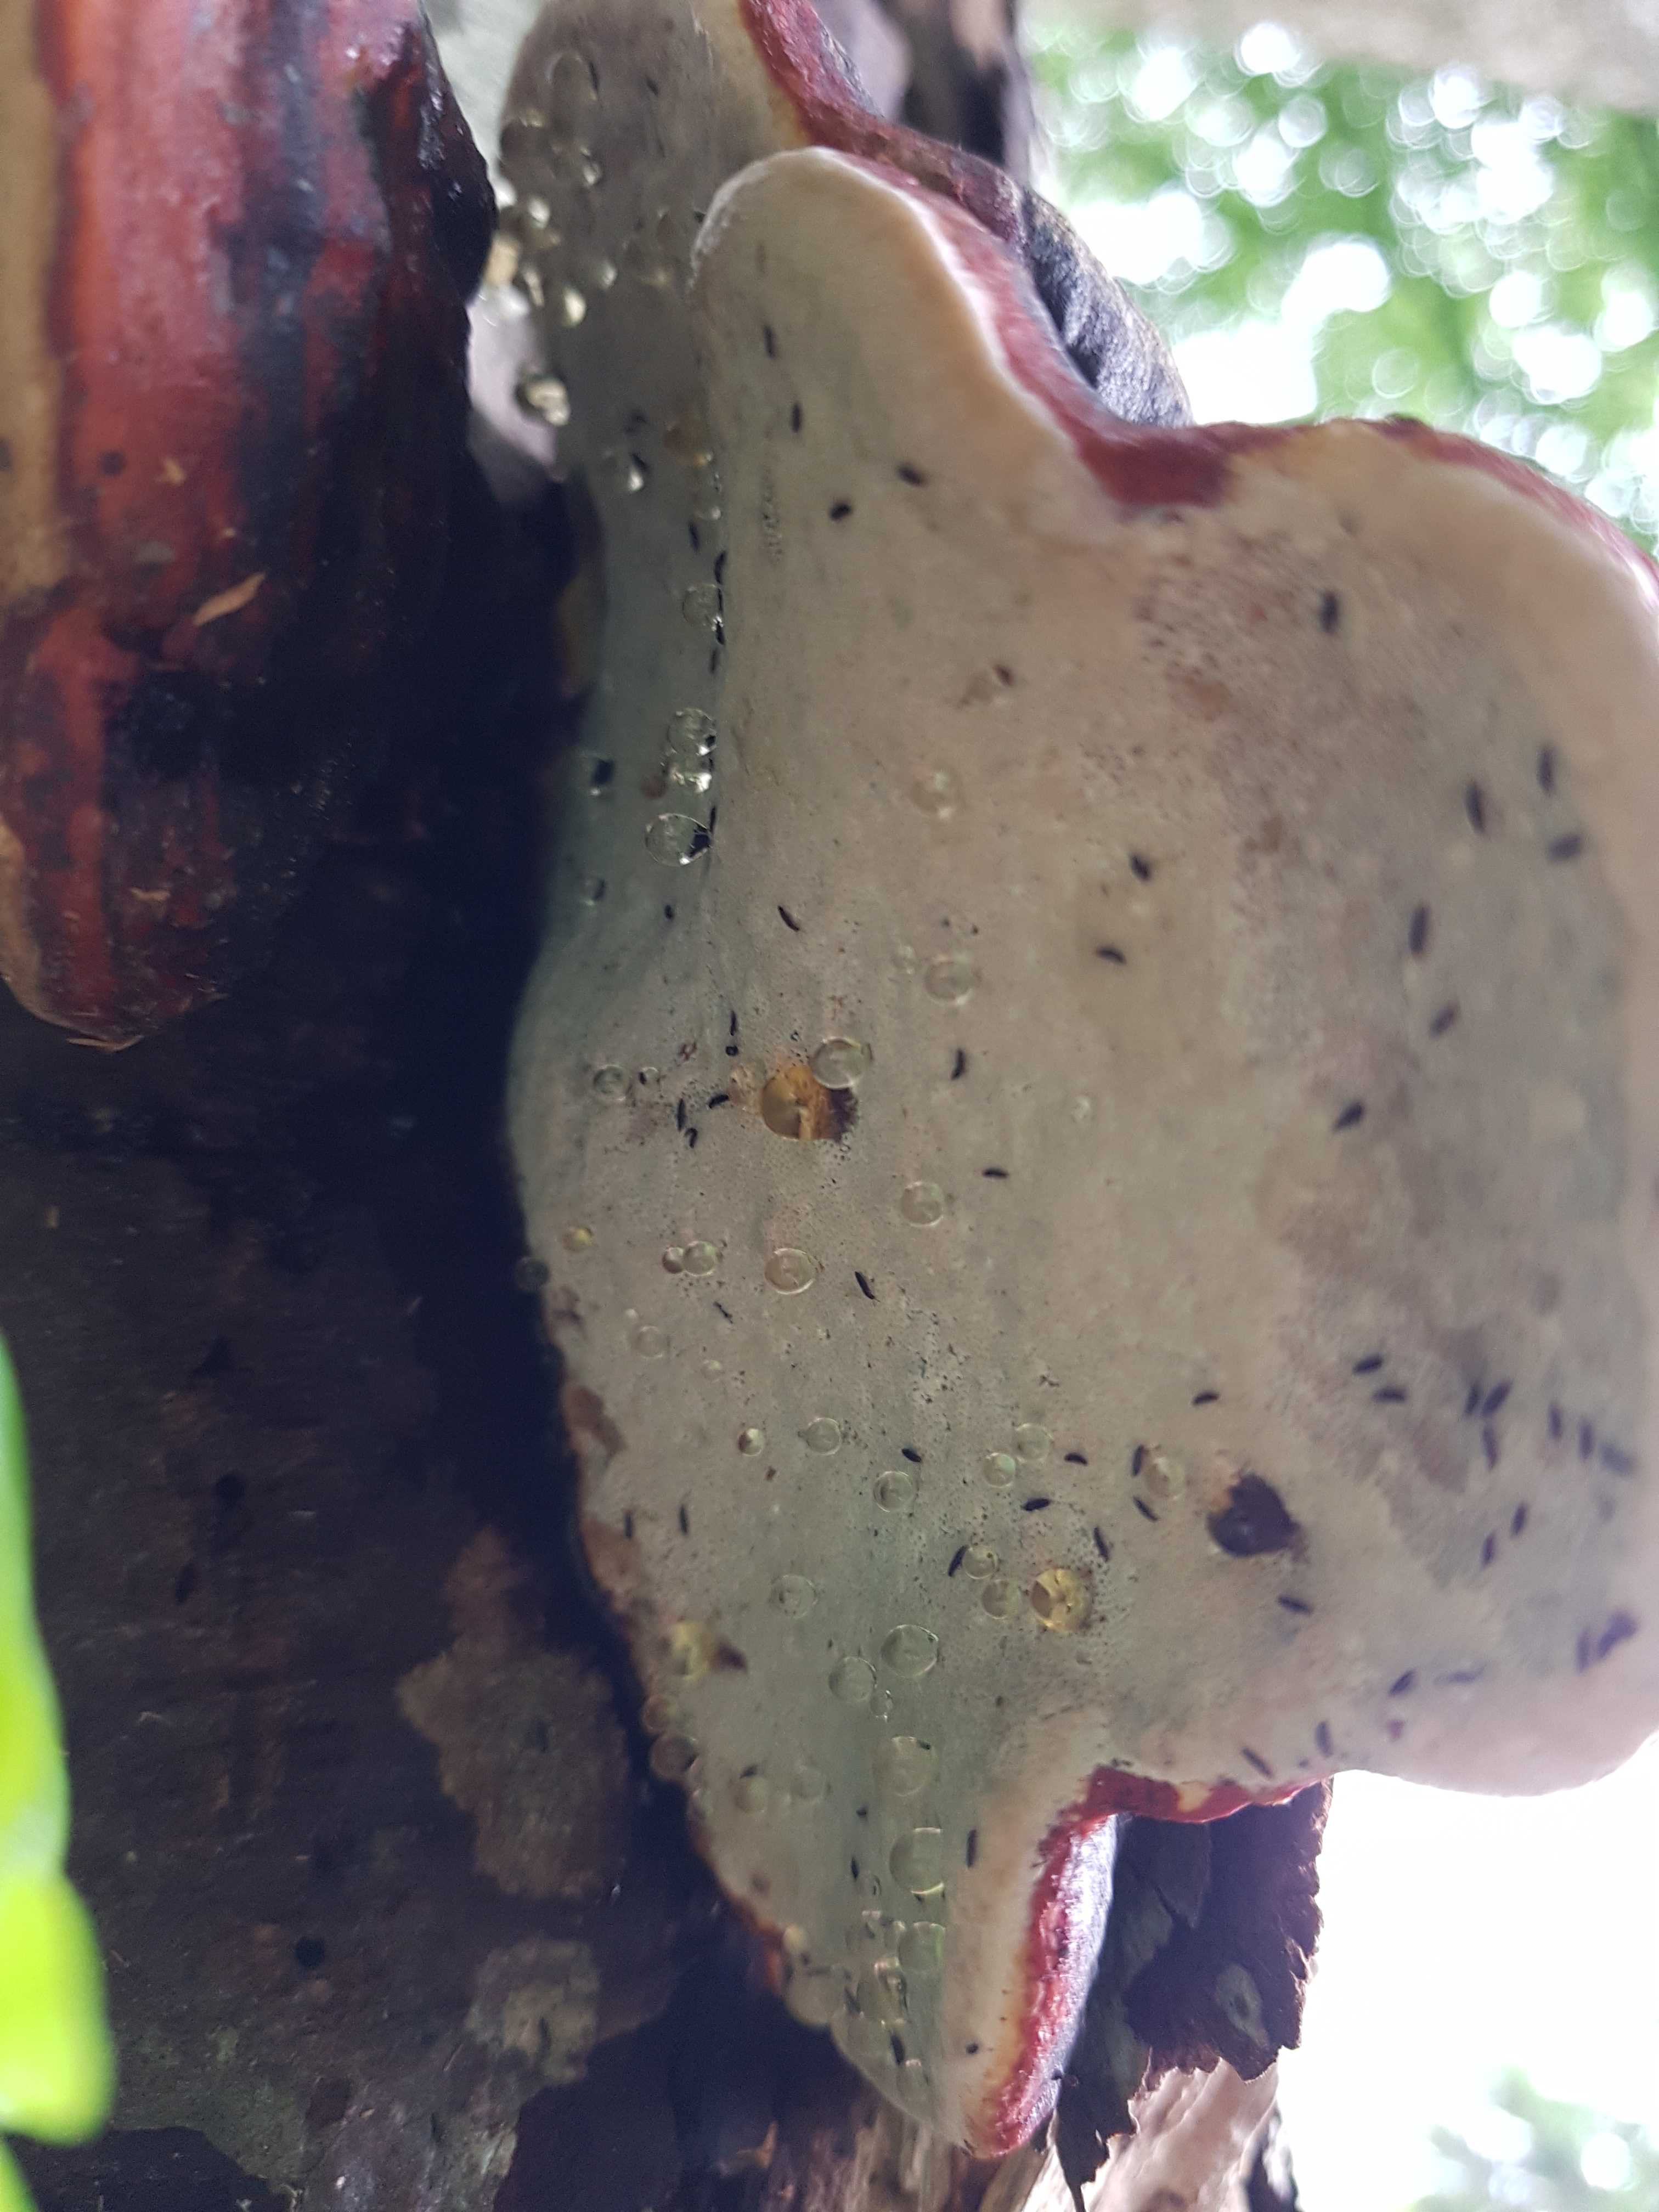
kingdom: Fungi
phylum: Basidiomycota
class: Agaricomycetes
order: Polyporales
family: Fomitopsidaceae
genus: Fomitopsis
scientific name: Fomitopsis pinicola
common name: randbæltet hovporesvamp
